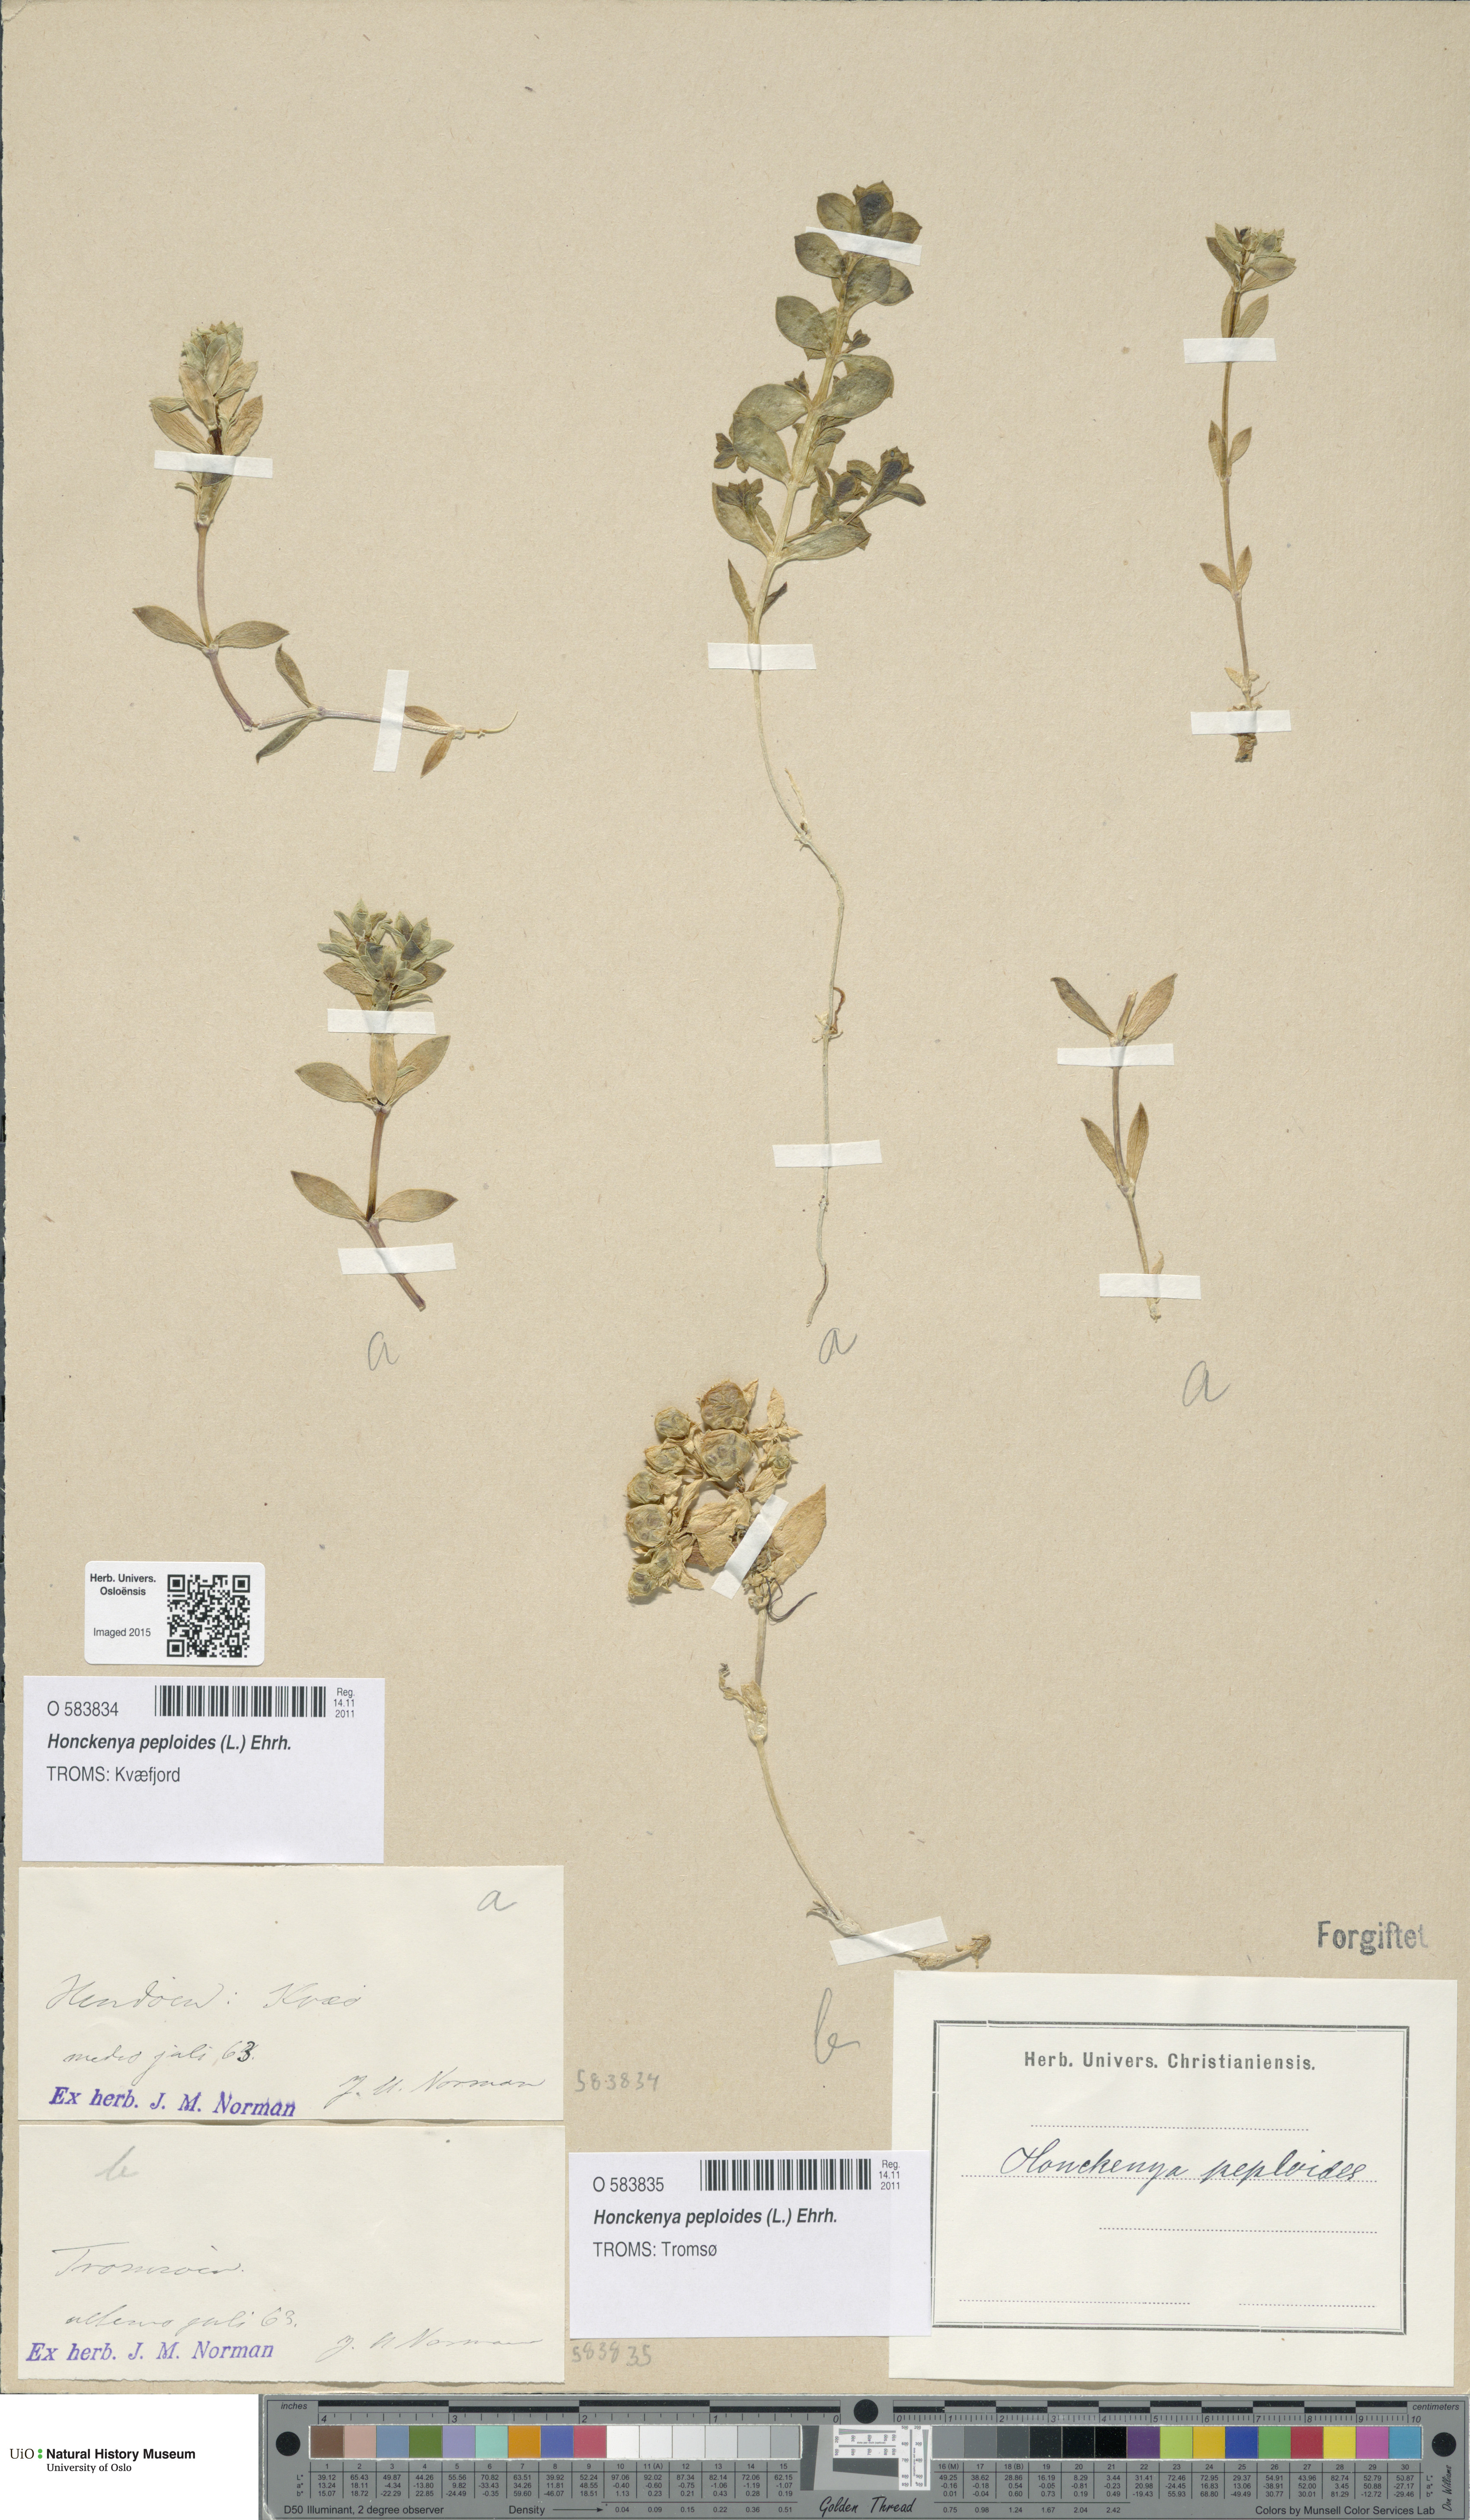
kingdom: Plantae
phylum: Tracheophyta
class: Magnoliopsida
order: Caryophyllales
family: Caryophyllaceae
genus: Honckenya
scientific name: Honckenya peploides
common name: Sea sandwort
